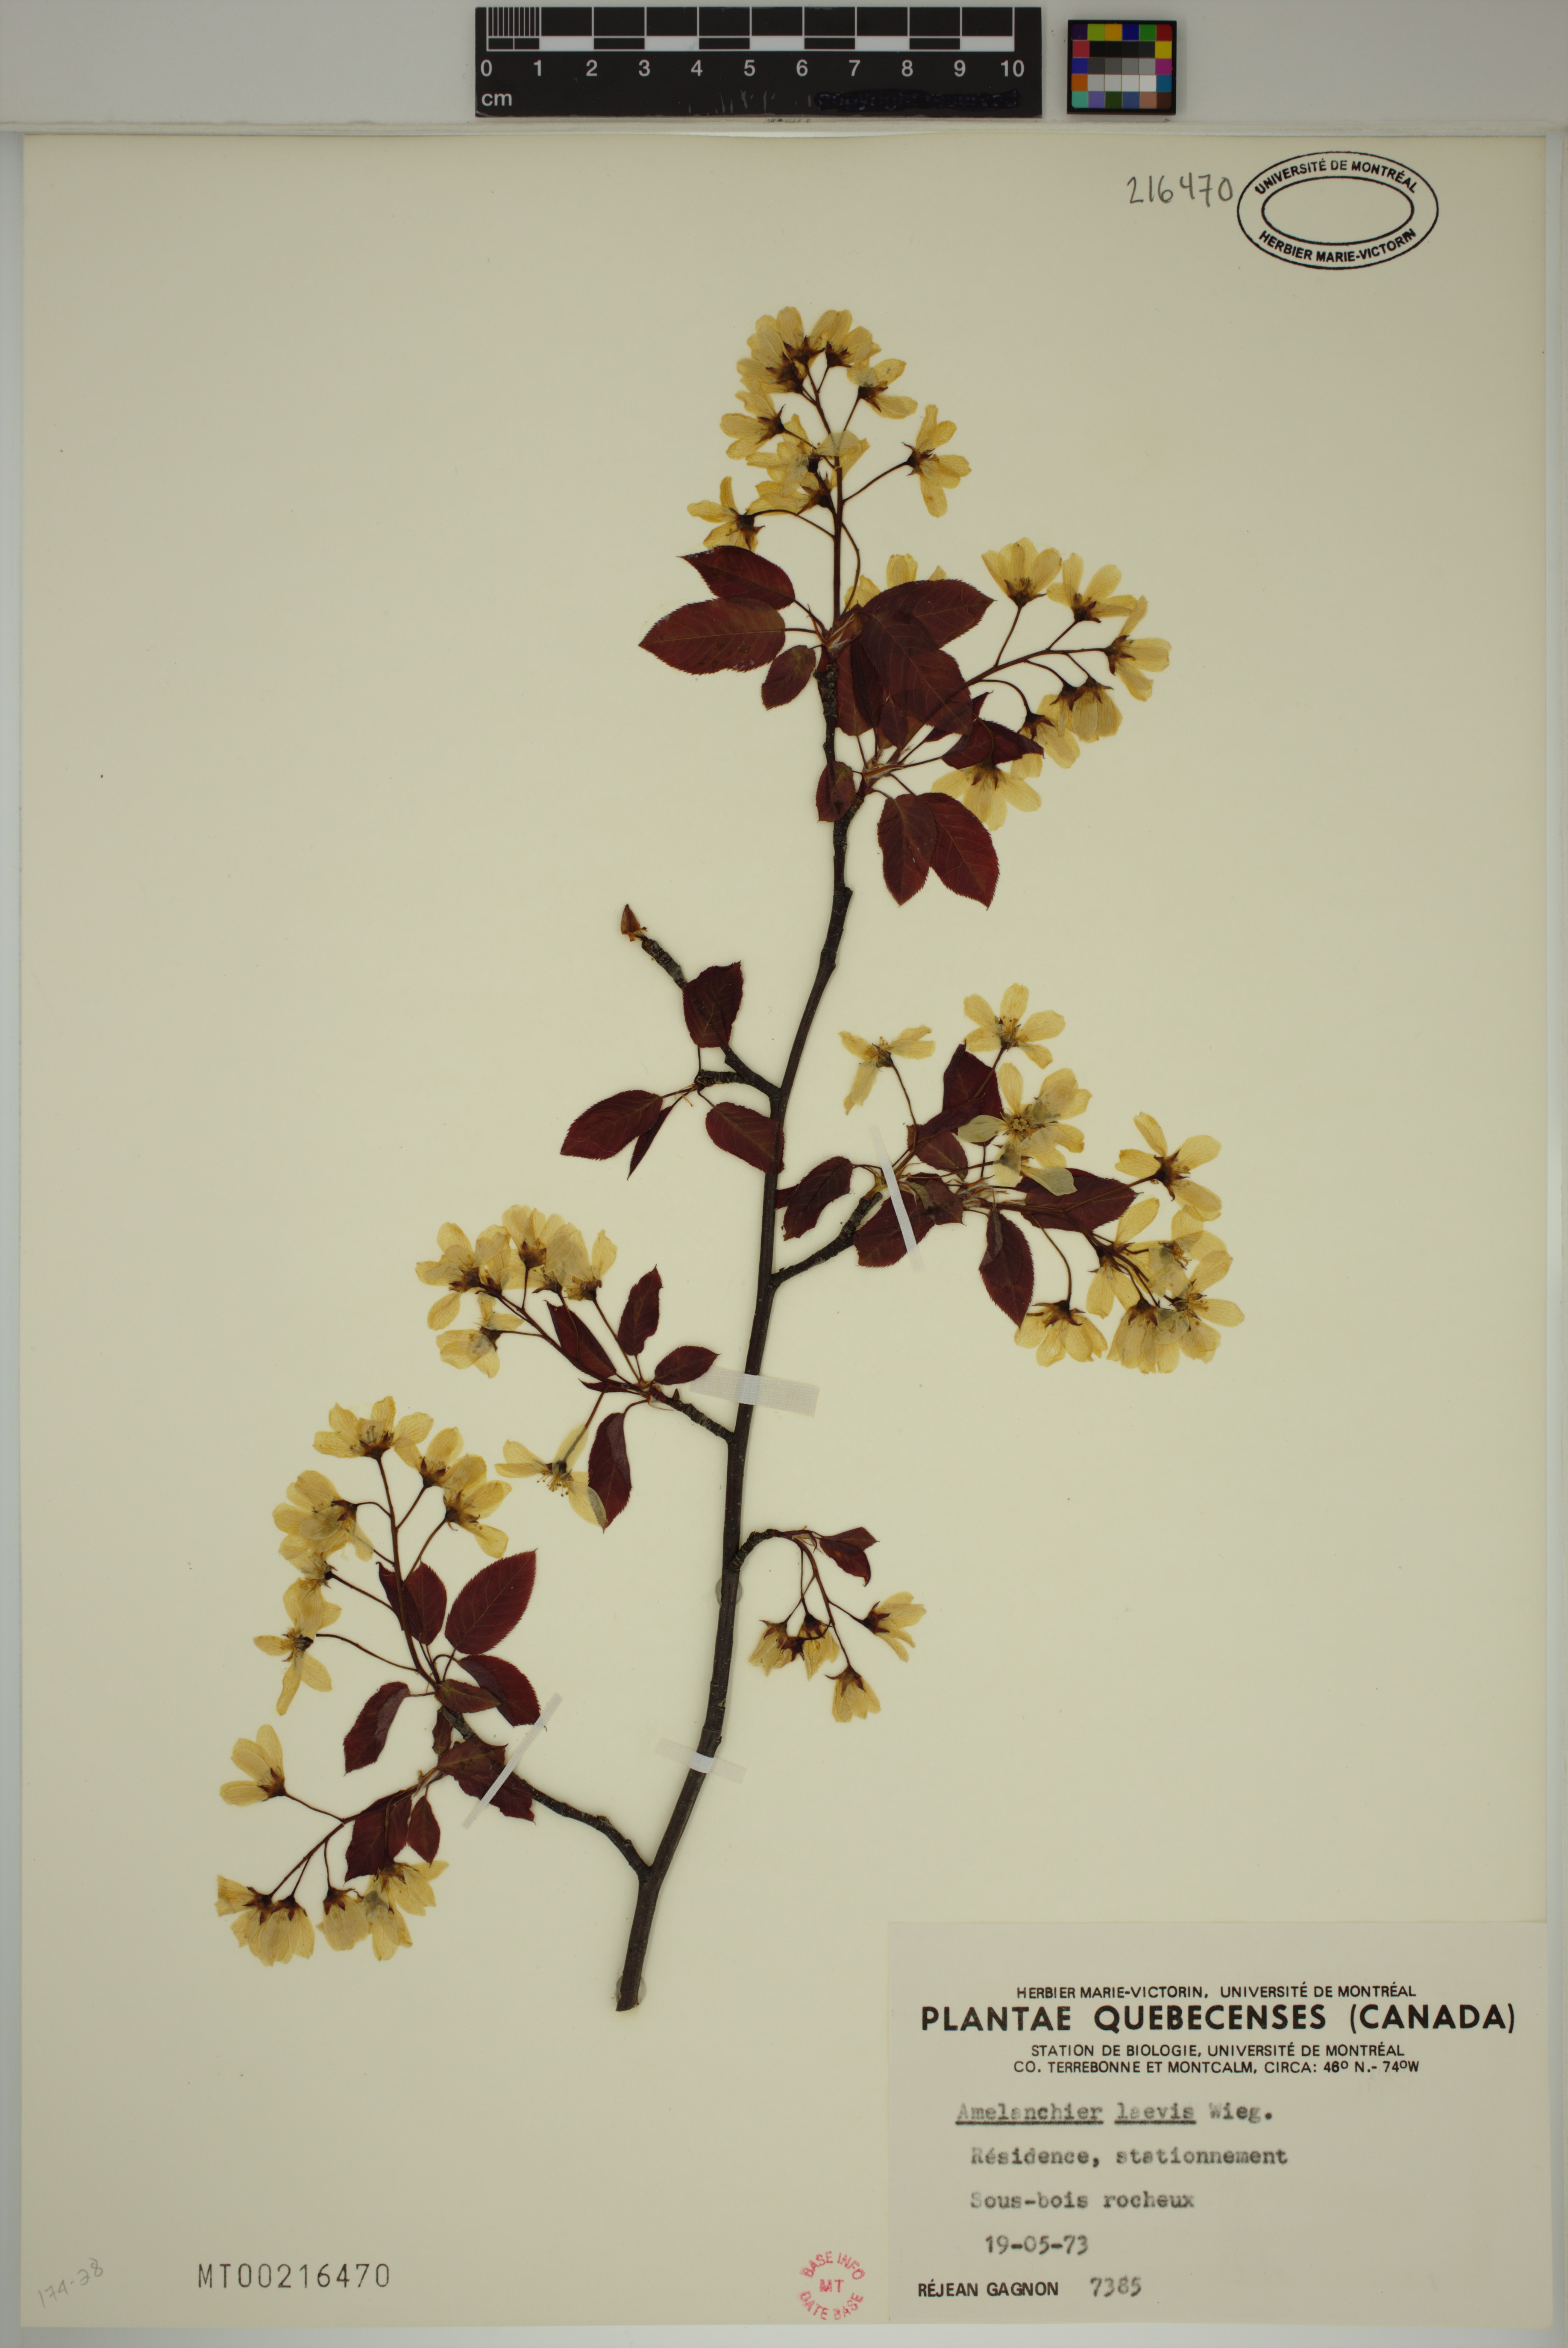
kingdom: Plantae
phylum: Tracheophyta
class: Magnoliopsida
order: Rosales
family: Rosaceae
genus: Amelanchier
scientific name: Amelanchier laevis
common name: Allegheny serviceberry
